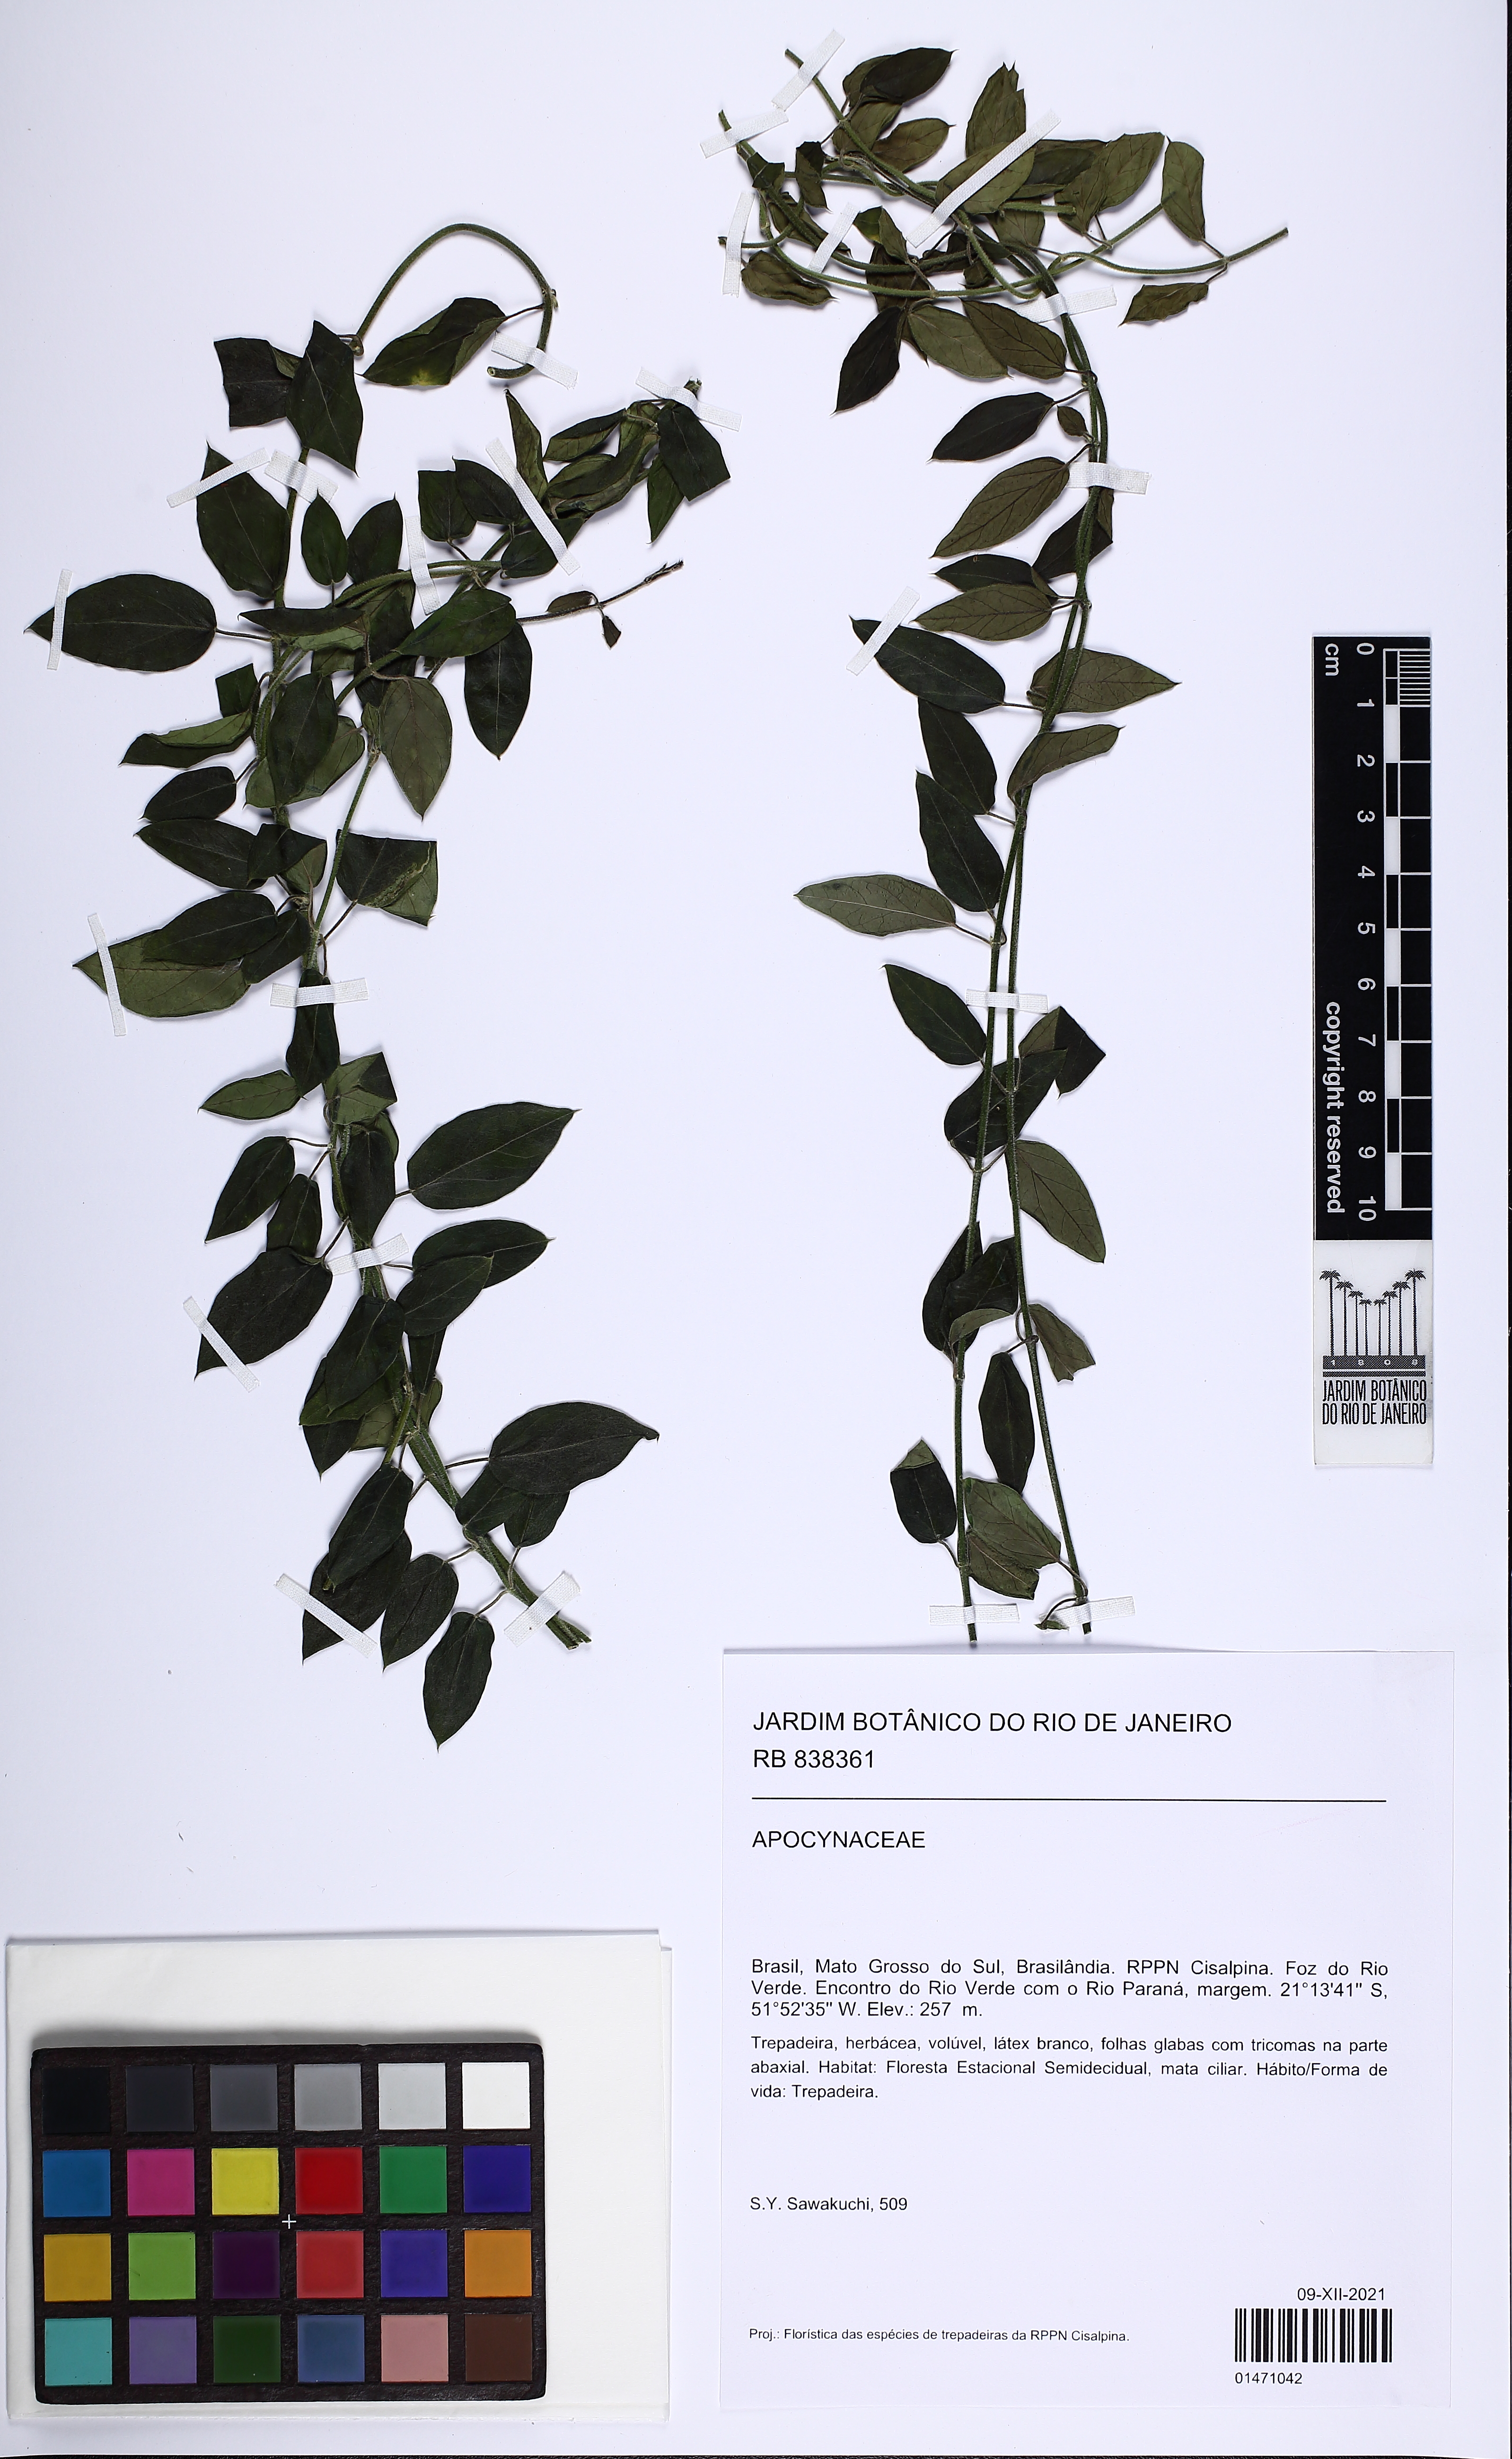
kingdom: Plantae
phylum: Tracheophyta
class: Magnoliopsida
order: Gentianales
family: Apocynaceae
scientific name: Apocynaceae
